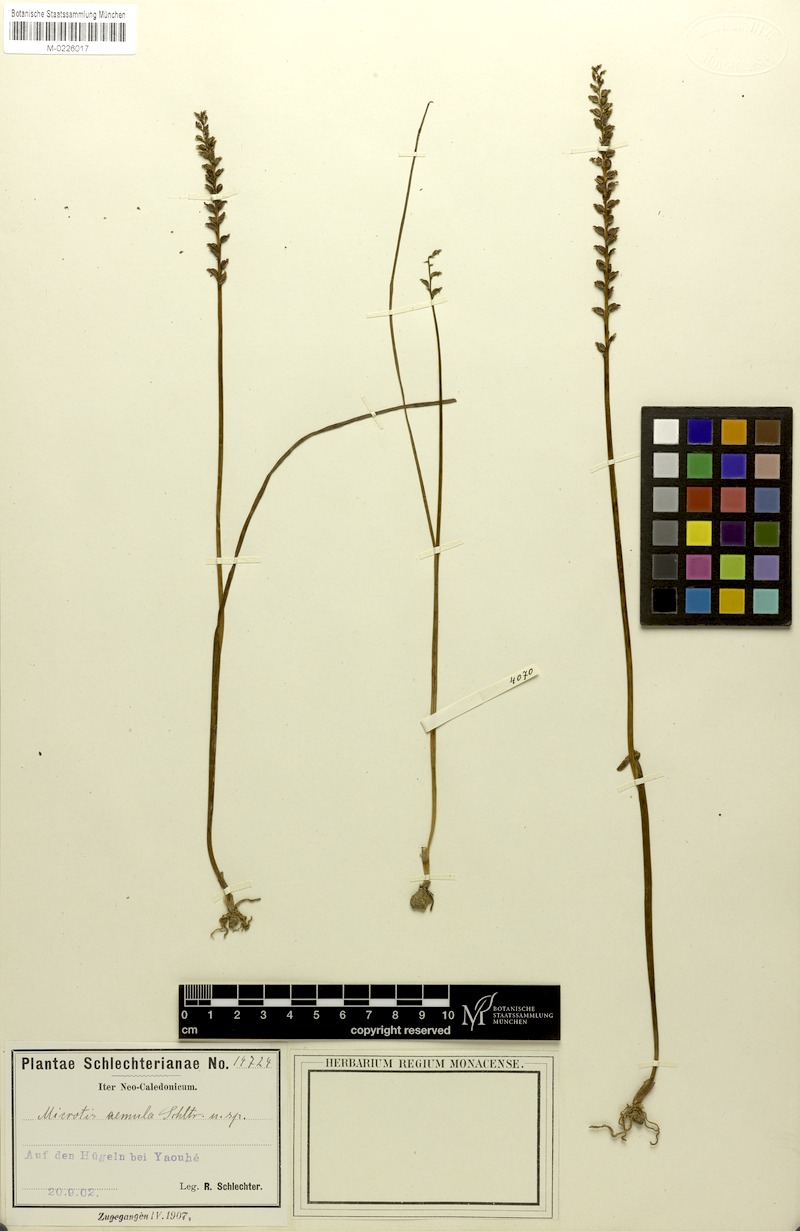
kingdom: Plantae
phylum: Tracheophyta
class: Liliopsida
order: Asparagales
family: Orchidaceae
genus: Microtis
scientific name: Microtis unifolia
